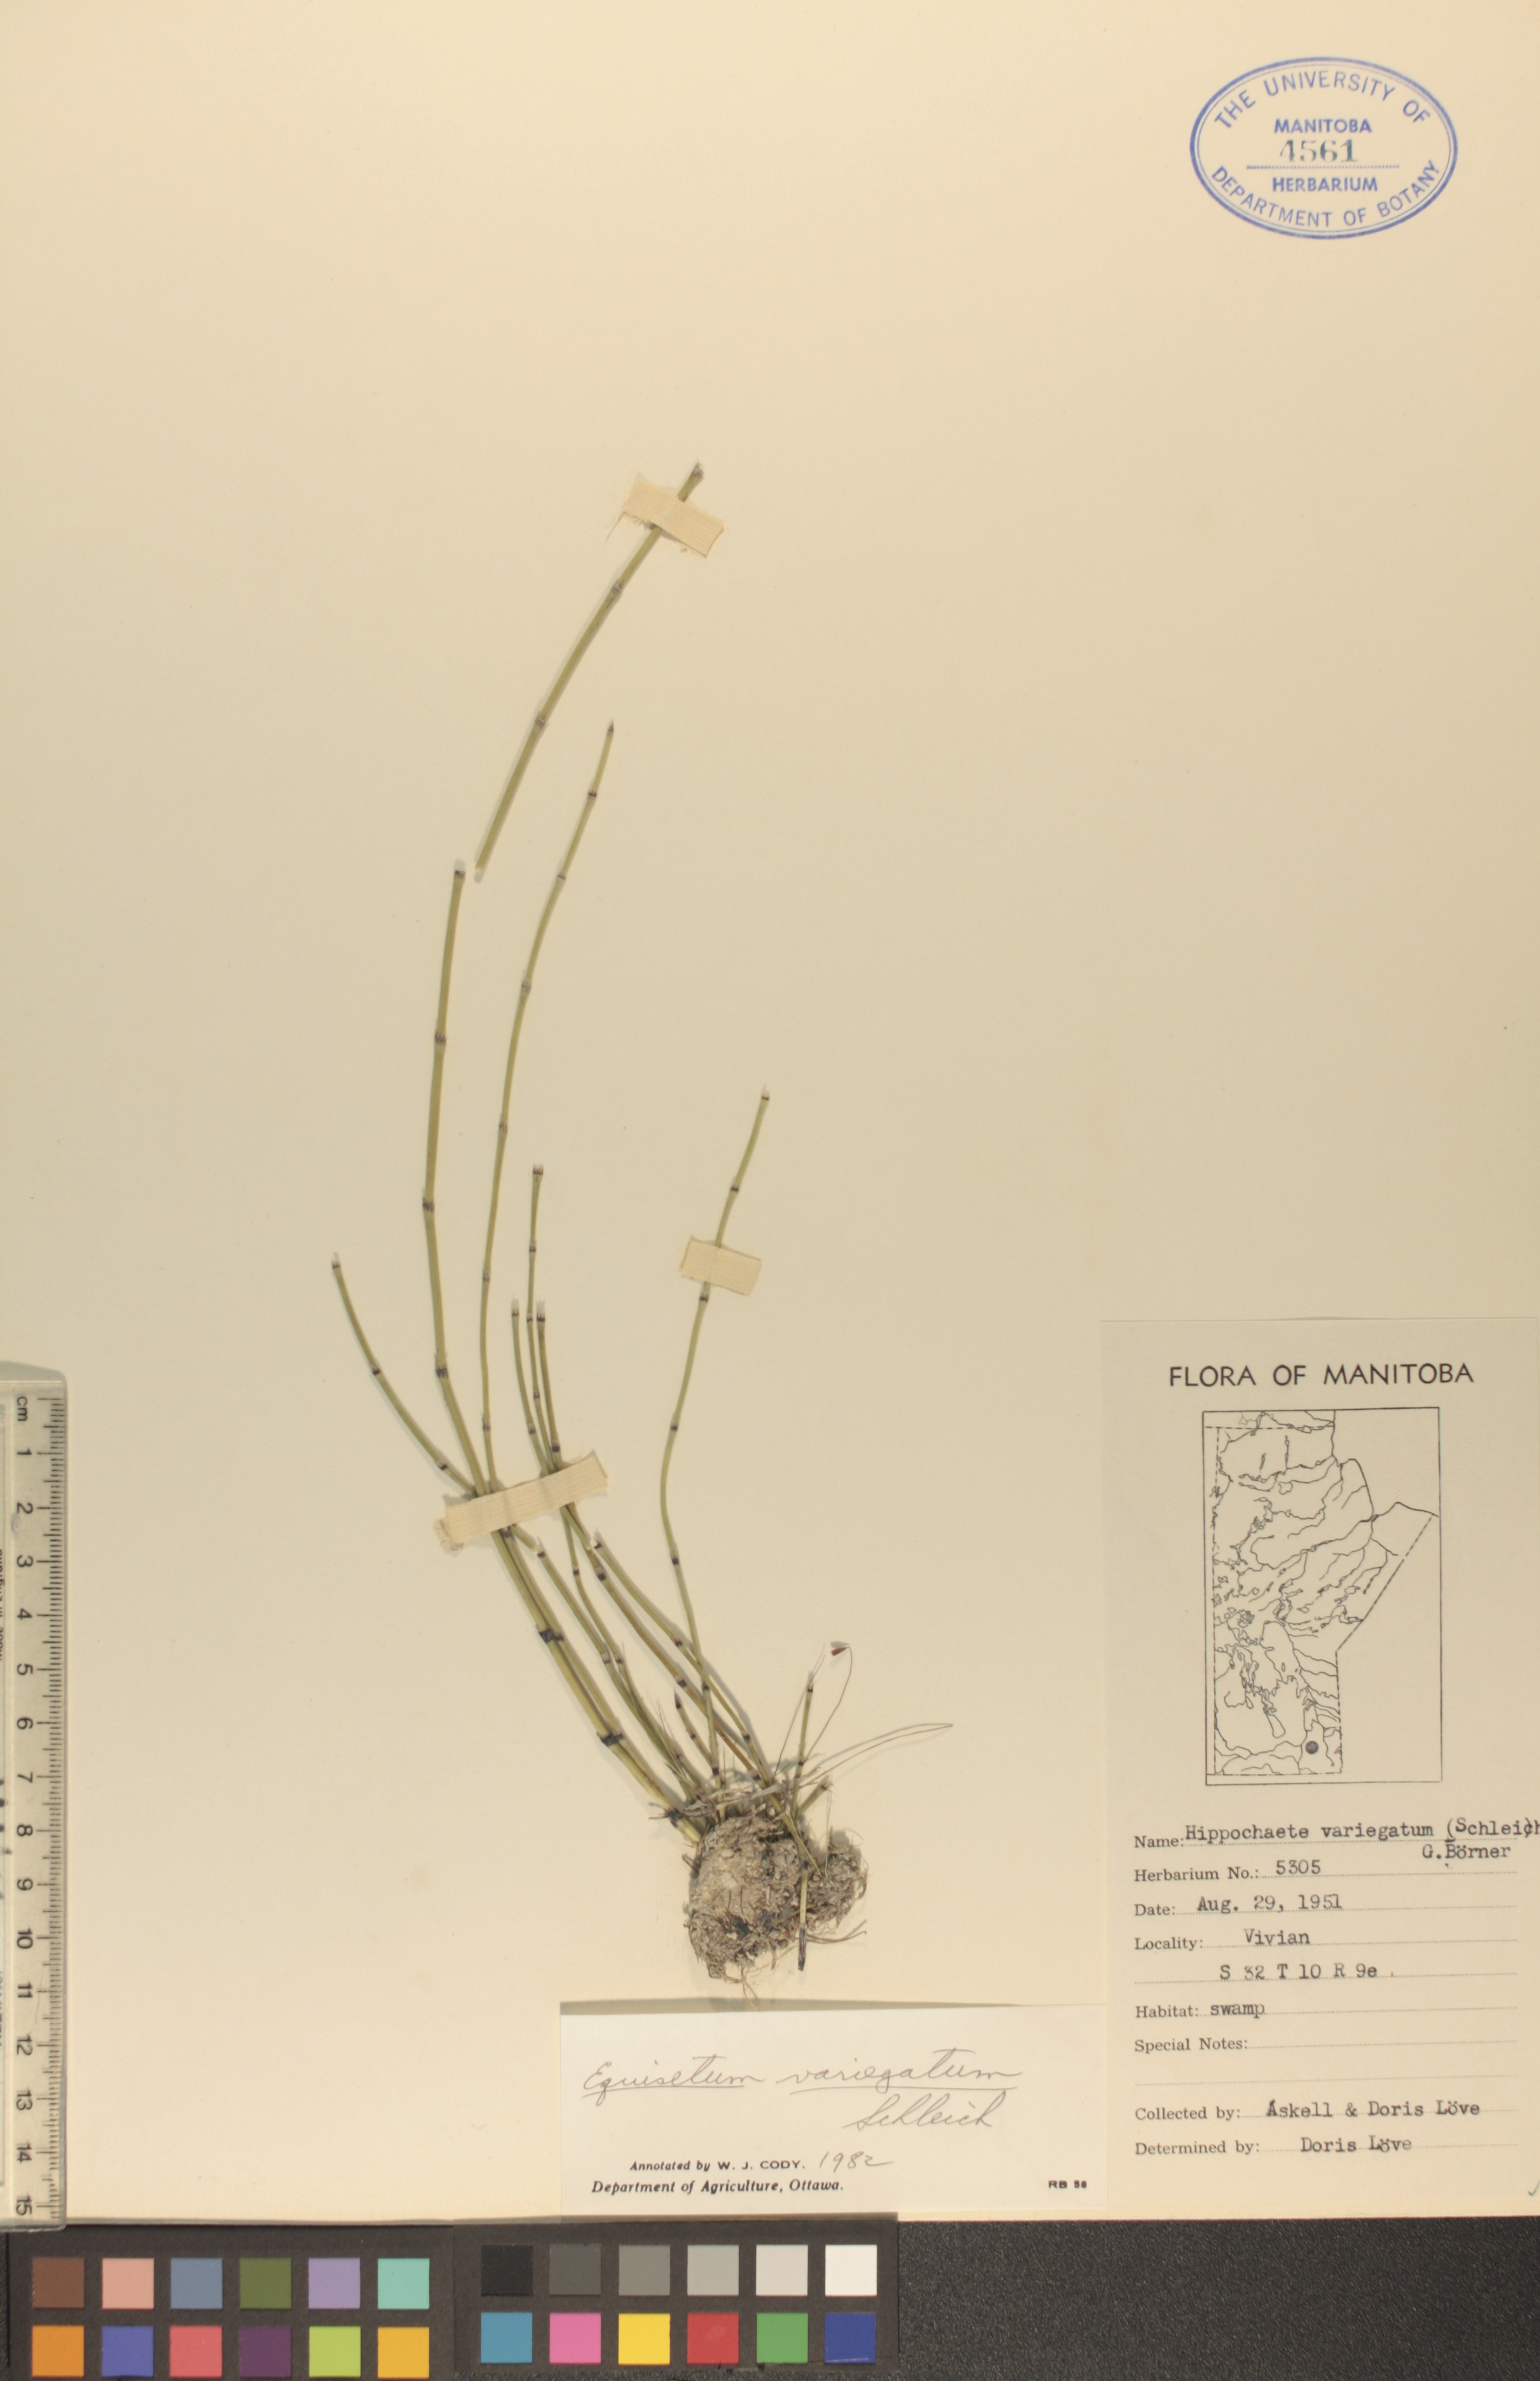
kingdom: Plantae
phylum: Tracheophyta
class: Polypodiopsida
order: Equisetales
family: Equisetaceae
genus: Equisetum
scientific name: Equisetum variegatum
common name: Variegated horsetail
